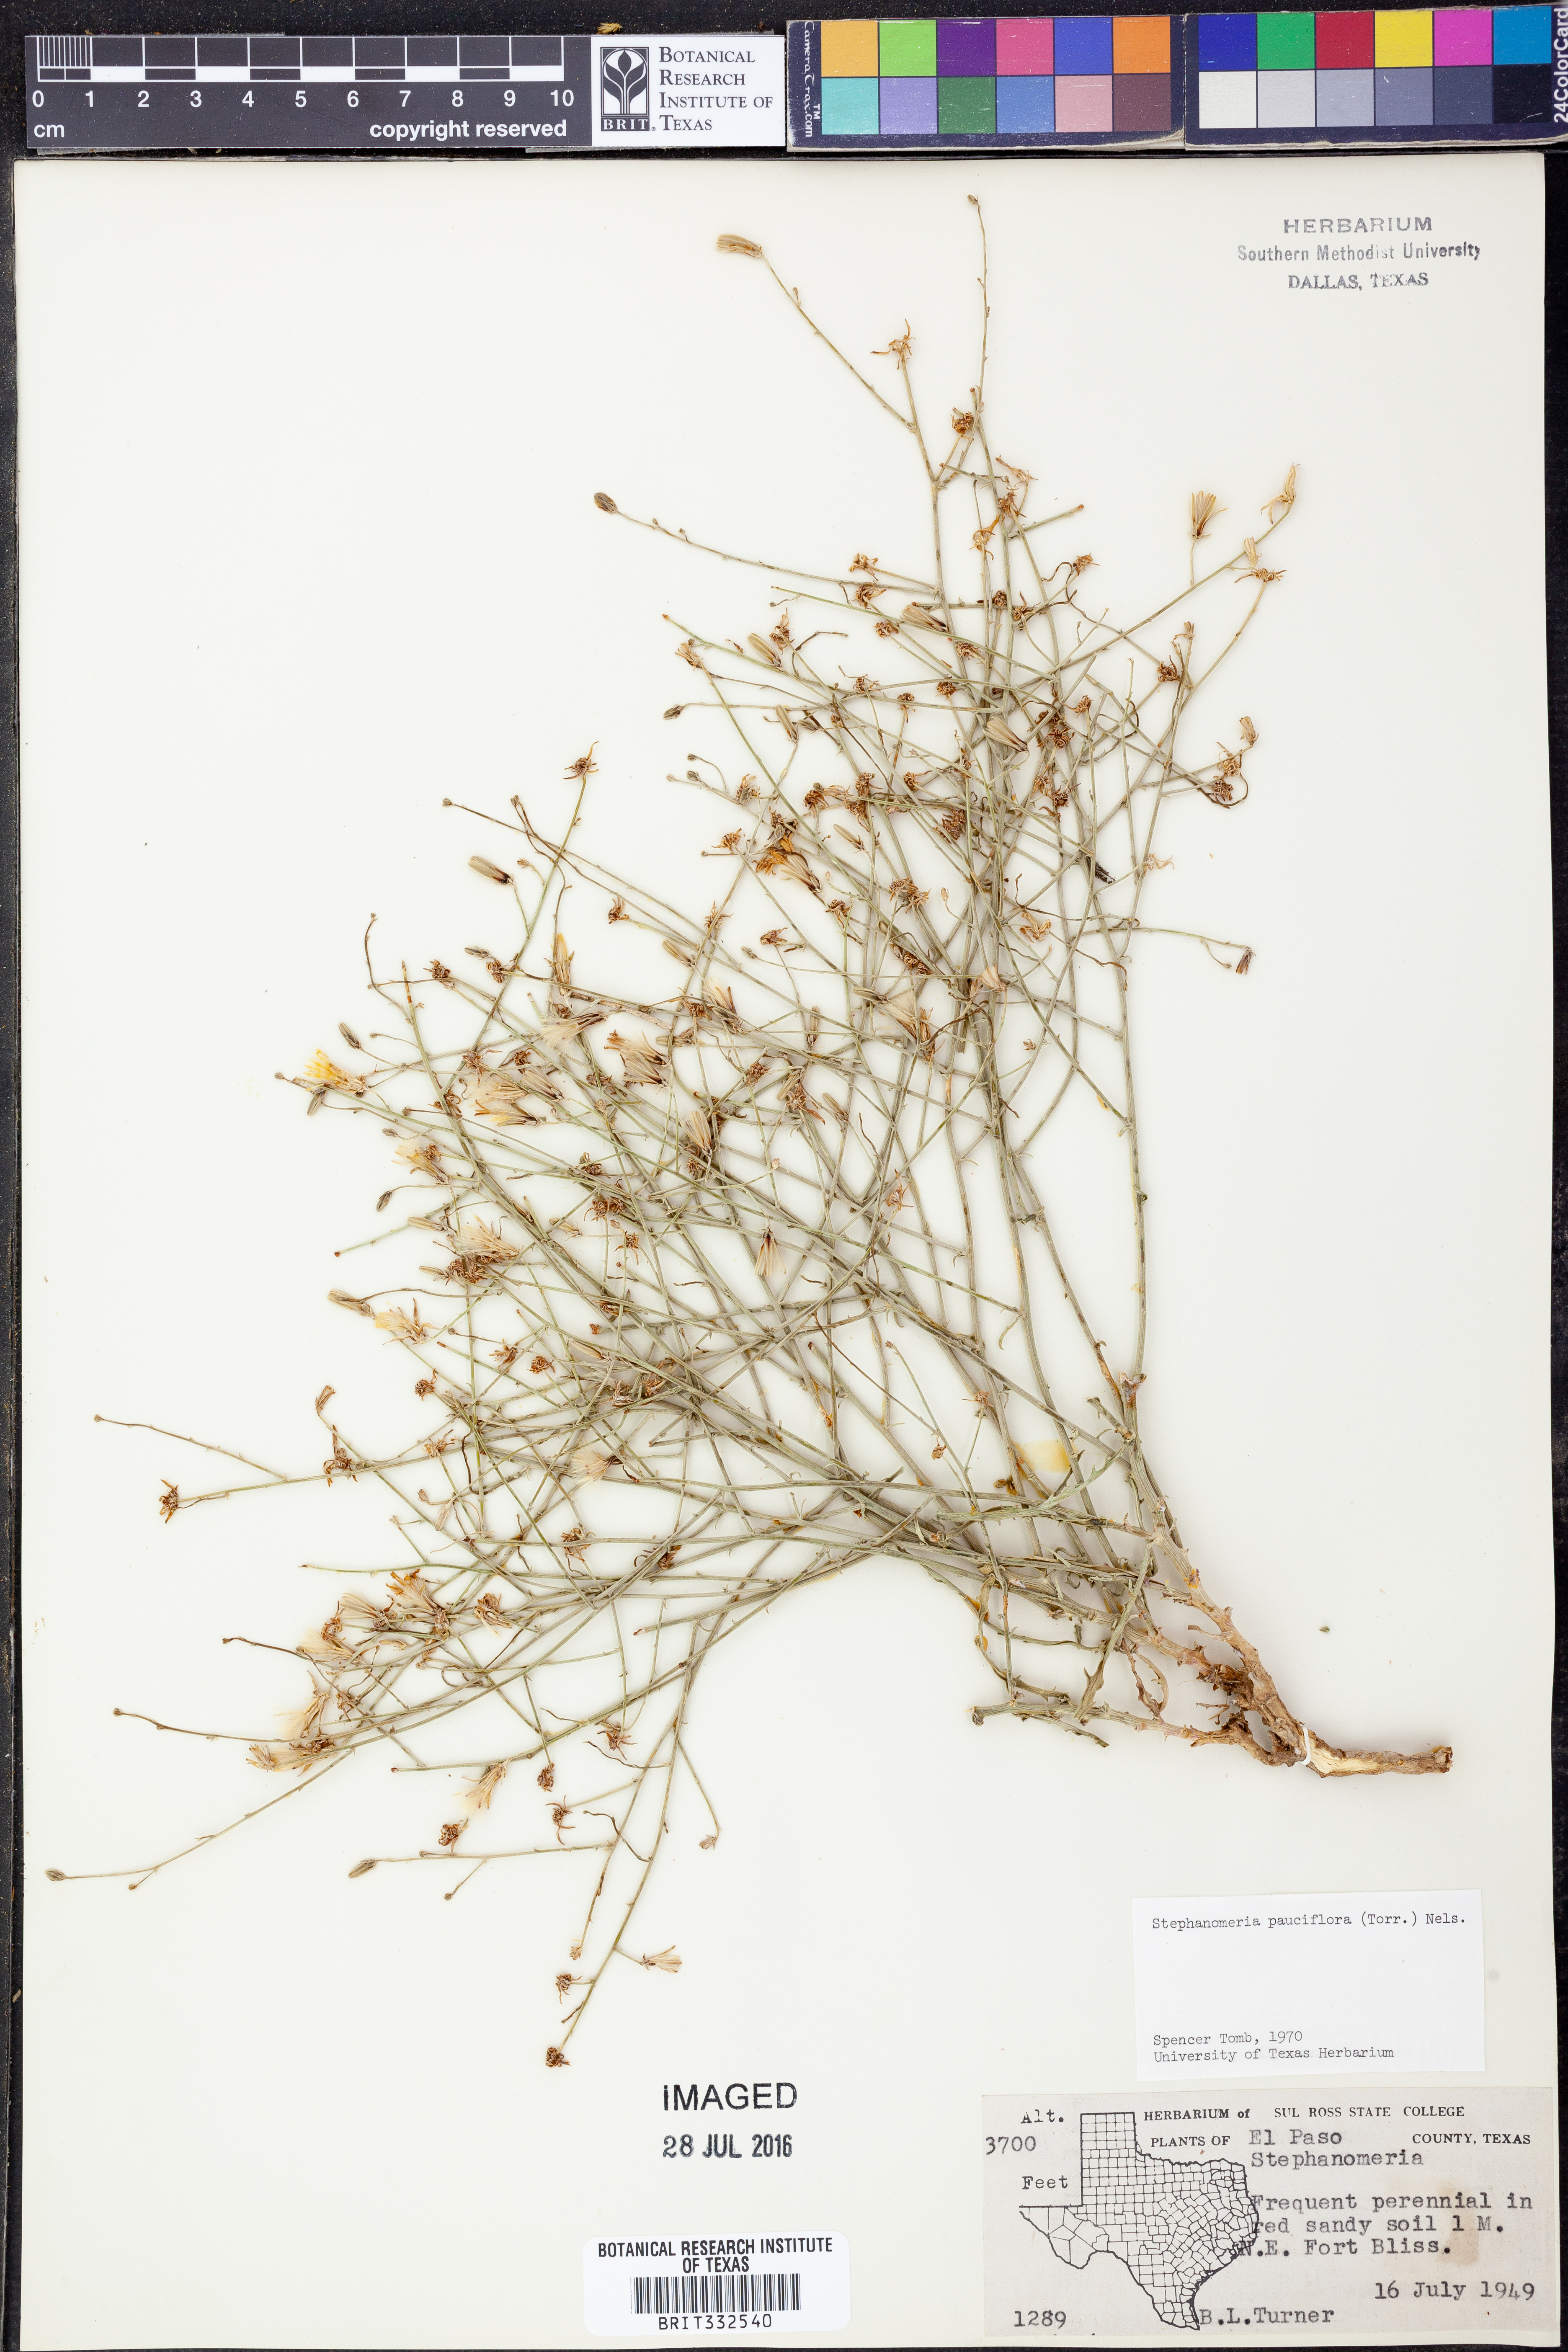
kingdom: Plantae
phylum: Tracheophyta
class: Magnoliopsida
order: Asterales
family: Asteraceae
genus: Stephanomeria
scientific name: Stephanomeria pauciflora
